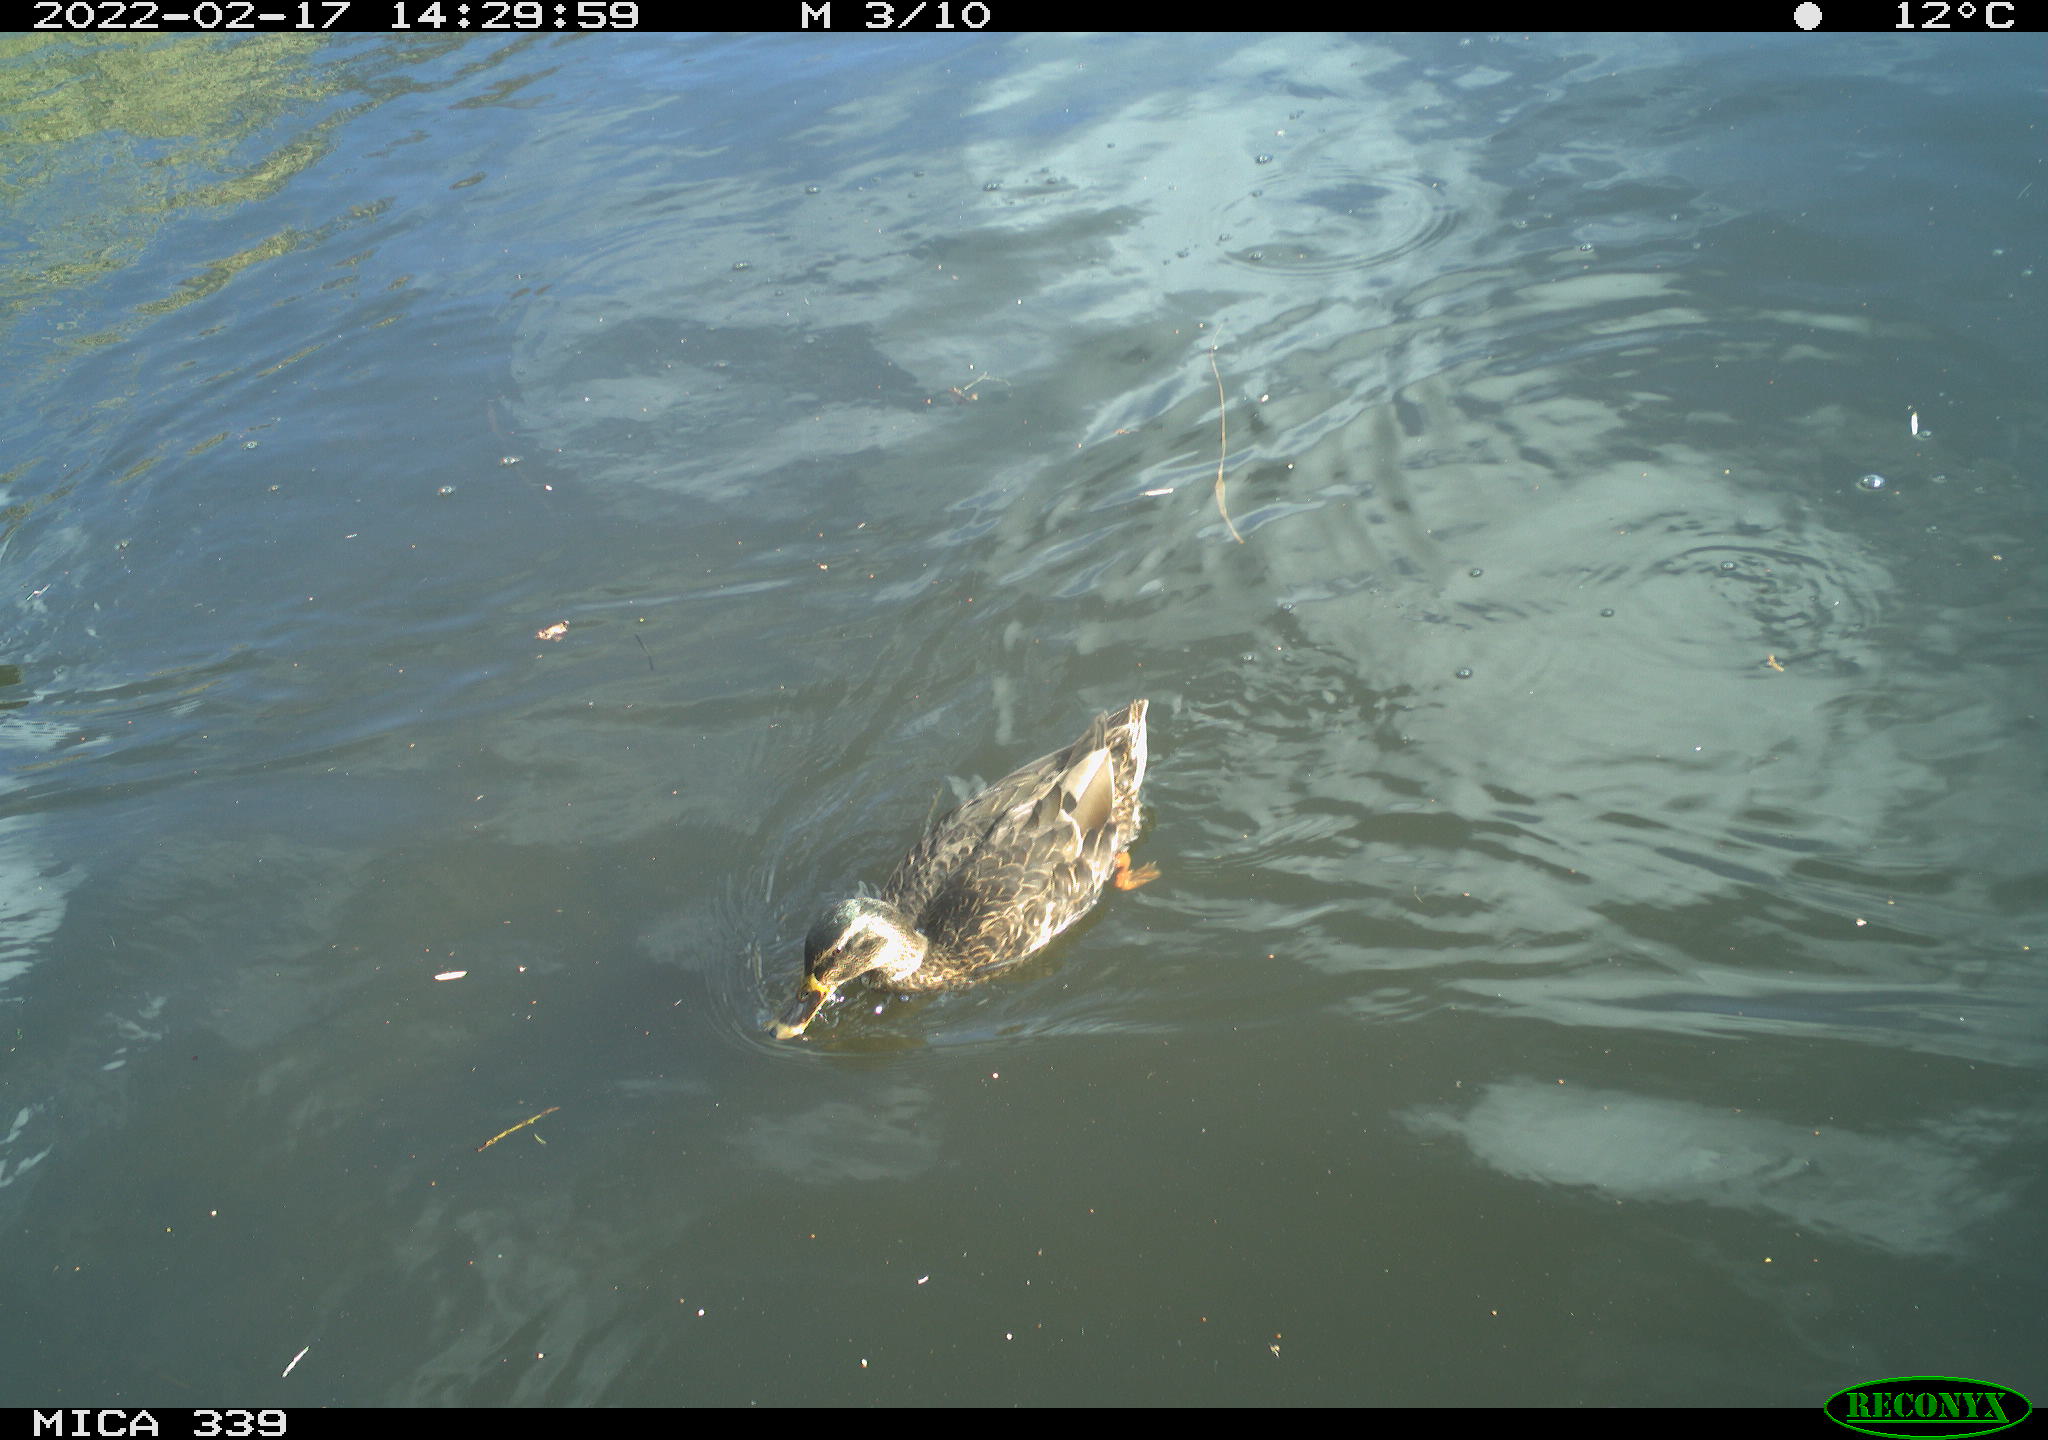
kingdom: Animalia
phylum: Chordata
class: Aves
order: Anseriformes
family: Anatidae
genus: Anas
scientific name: Anas platyrhynchos
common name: Mallard
